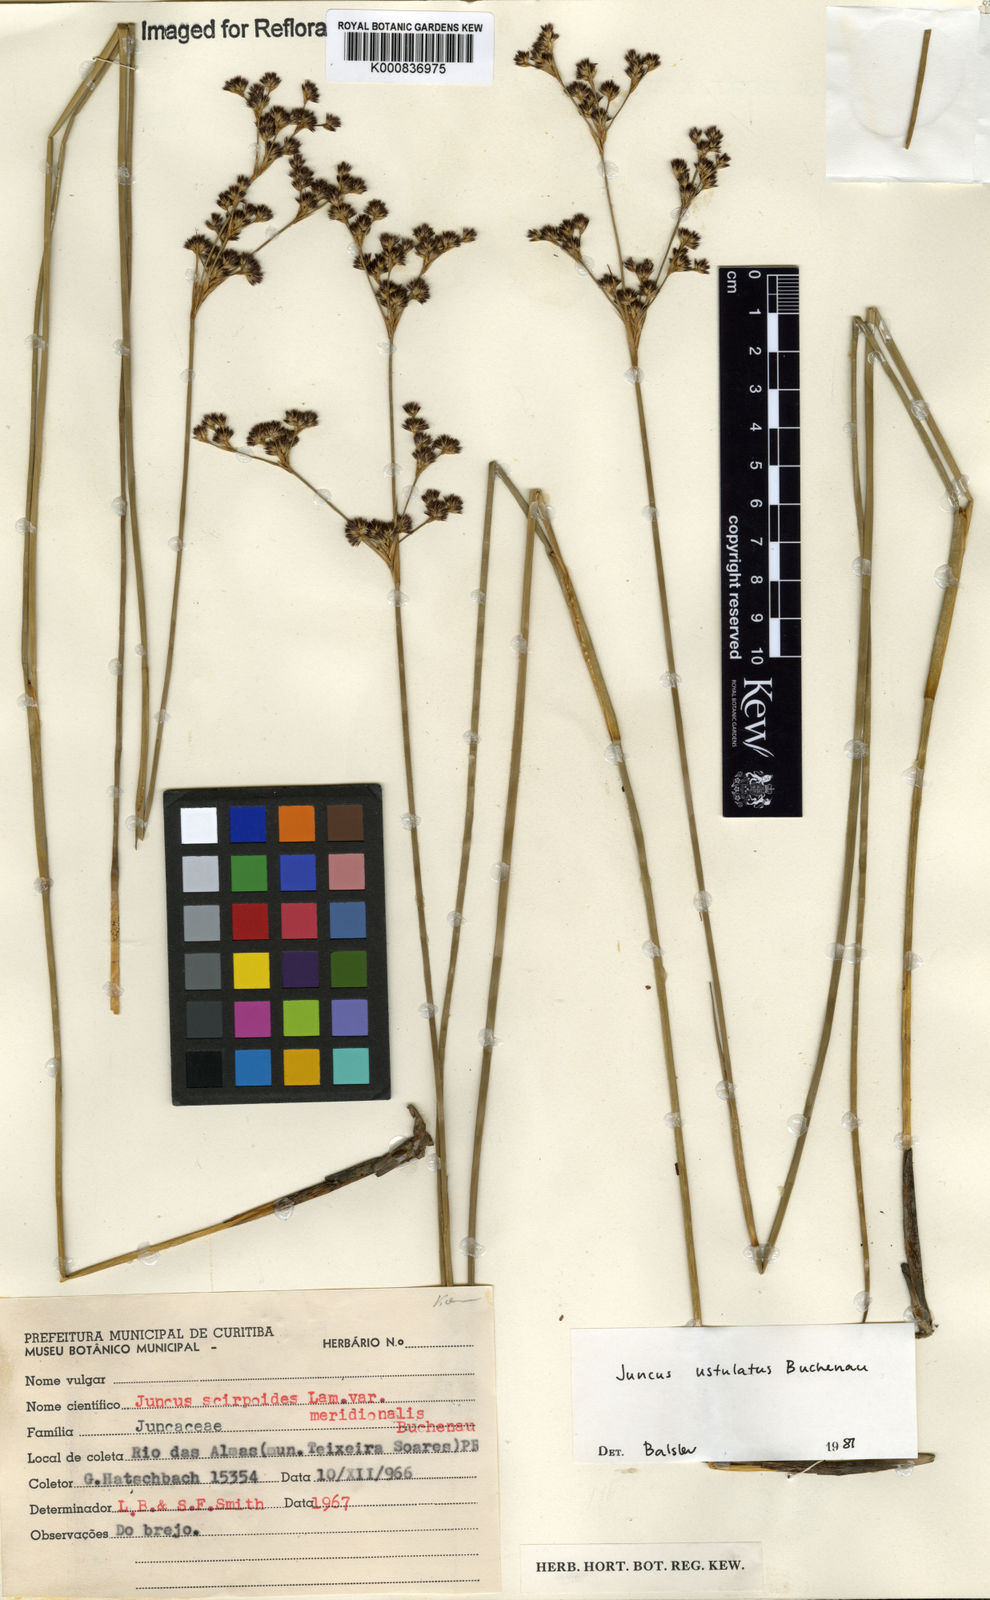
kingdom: Plantae
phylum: Tracheophyta
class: Liliopsida
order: Poales
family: Juncaceae
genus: Juncus
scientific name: Juncus
